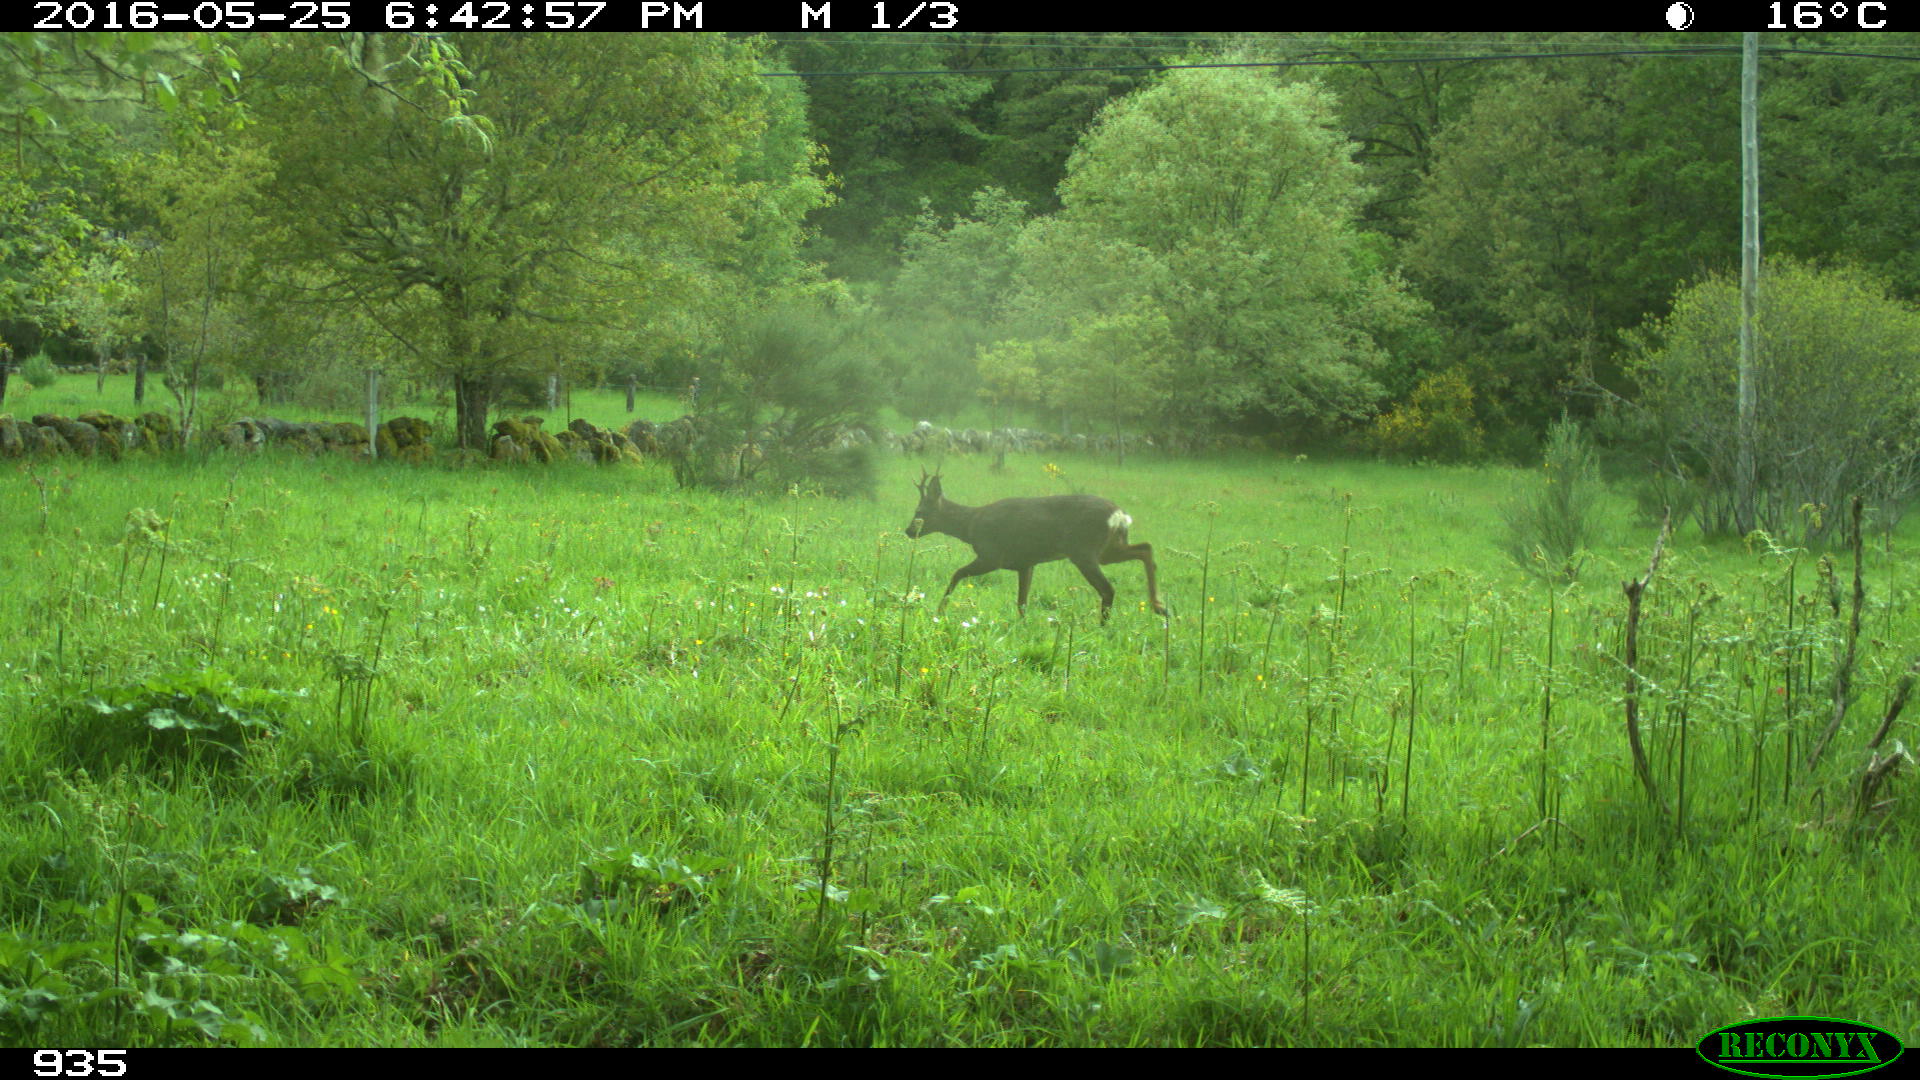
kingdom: Animalia
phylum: Chordata
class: Mammalia
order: Artiodactyla
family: Cervidae
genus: Capreolus
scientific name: Capreolus capreolus
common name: Western roe deer
